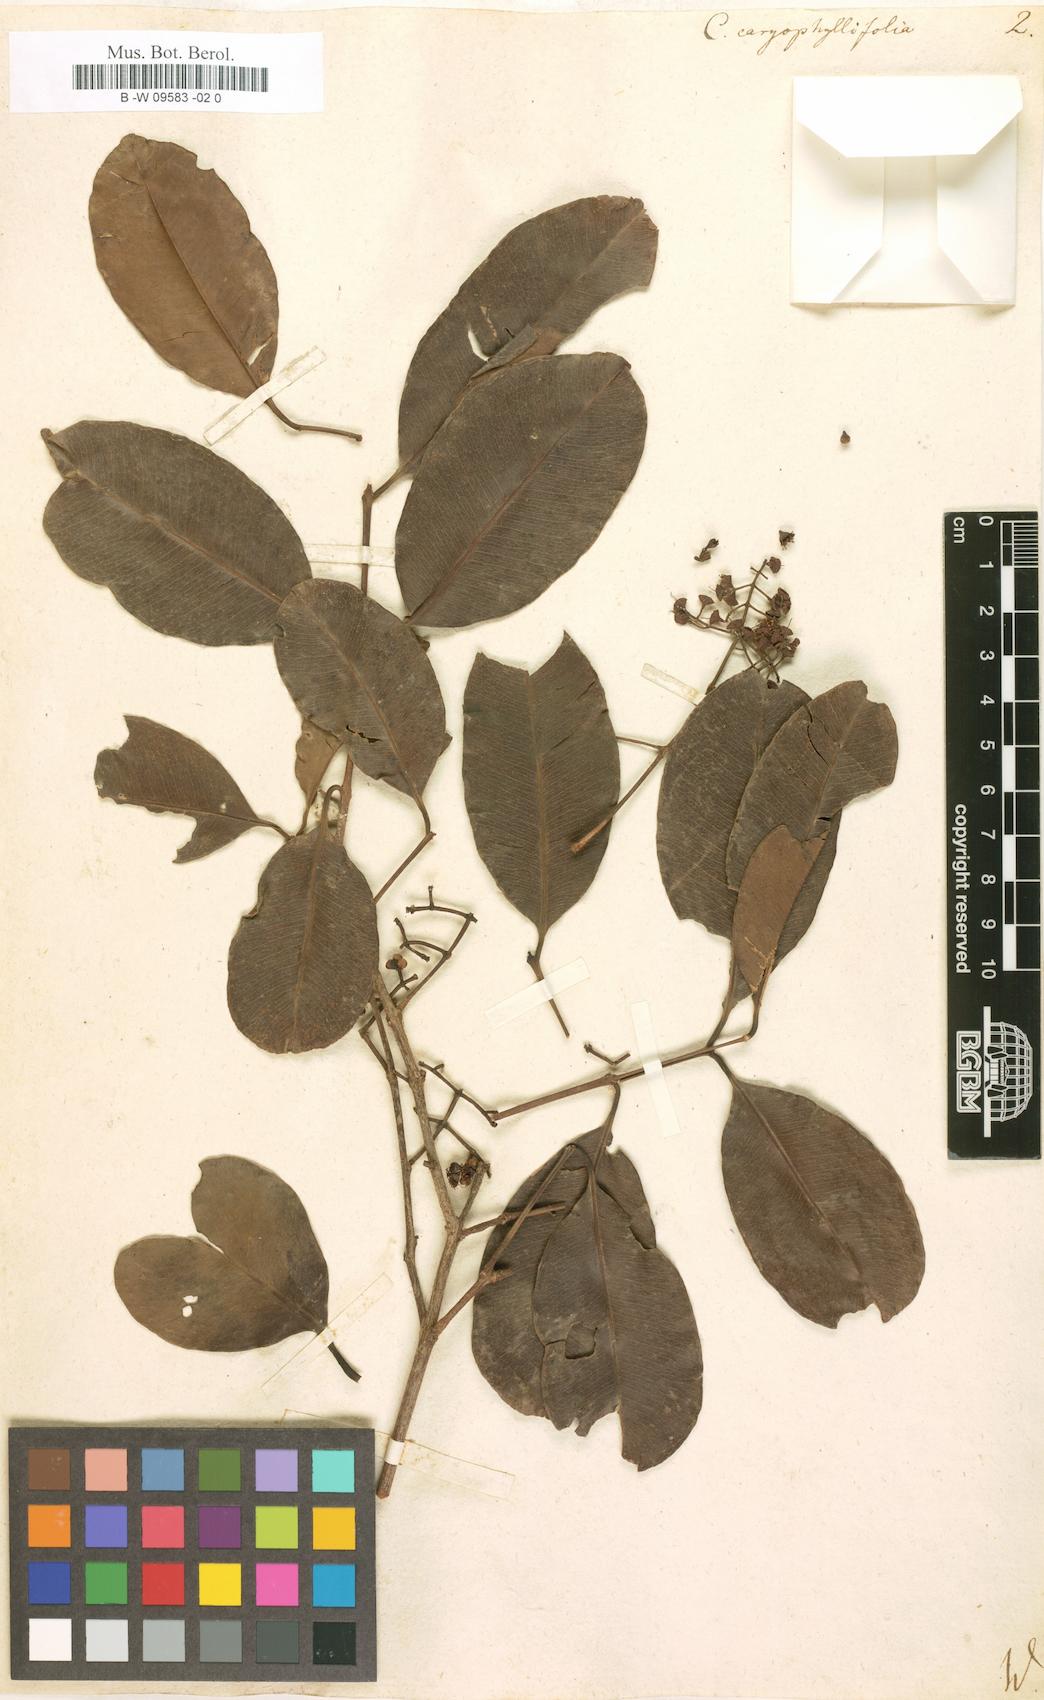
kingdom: Plantae
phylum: Tracheophyta
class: Magnoliopsida
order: Myrtales
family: Myrtaceae
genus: Syzygium
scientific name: Syzygium cumini
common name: Java plum
